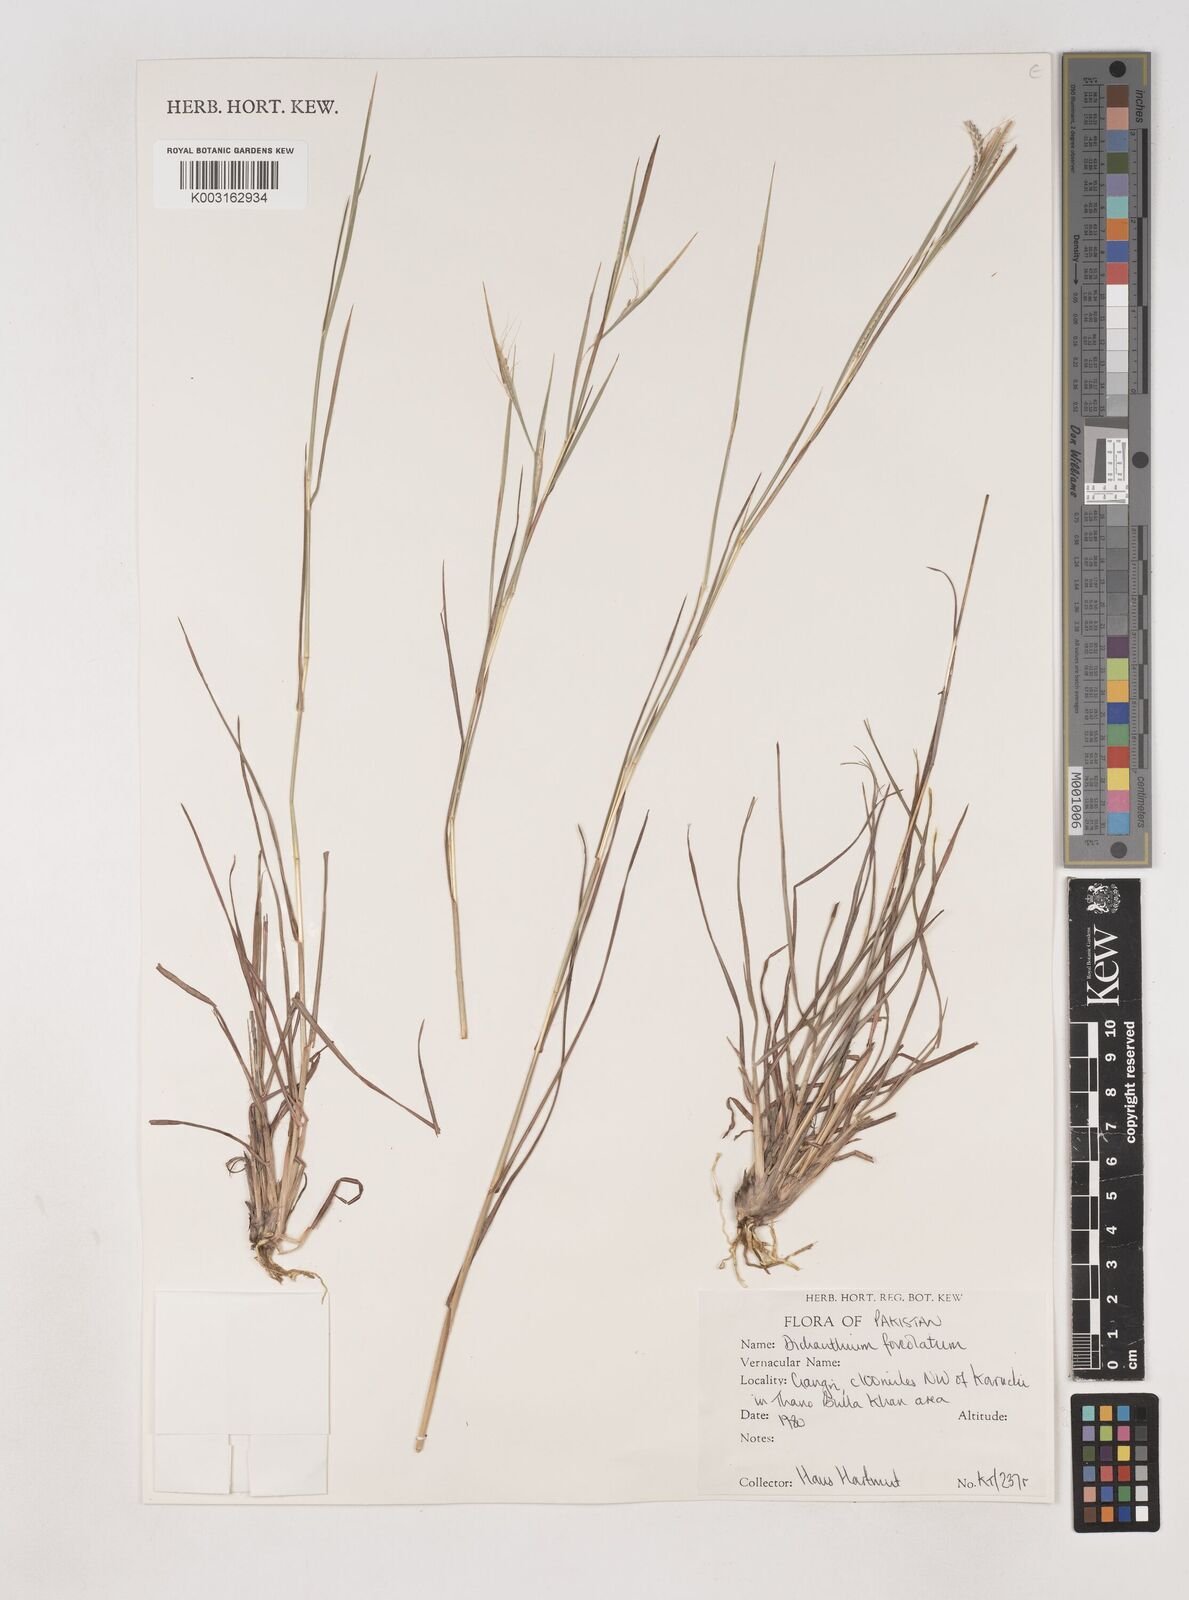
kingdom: Plantae
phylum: Tracheophyta
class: Liliopsida
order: Poales
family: Poaceae
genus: Dichanthium
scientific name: Dichanthium
